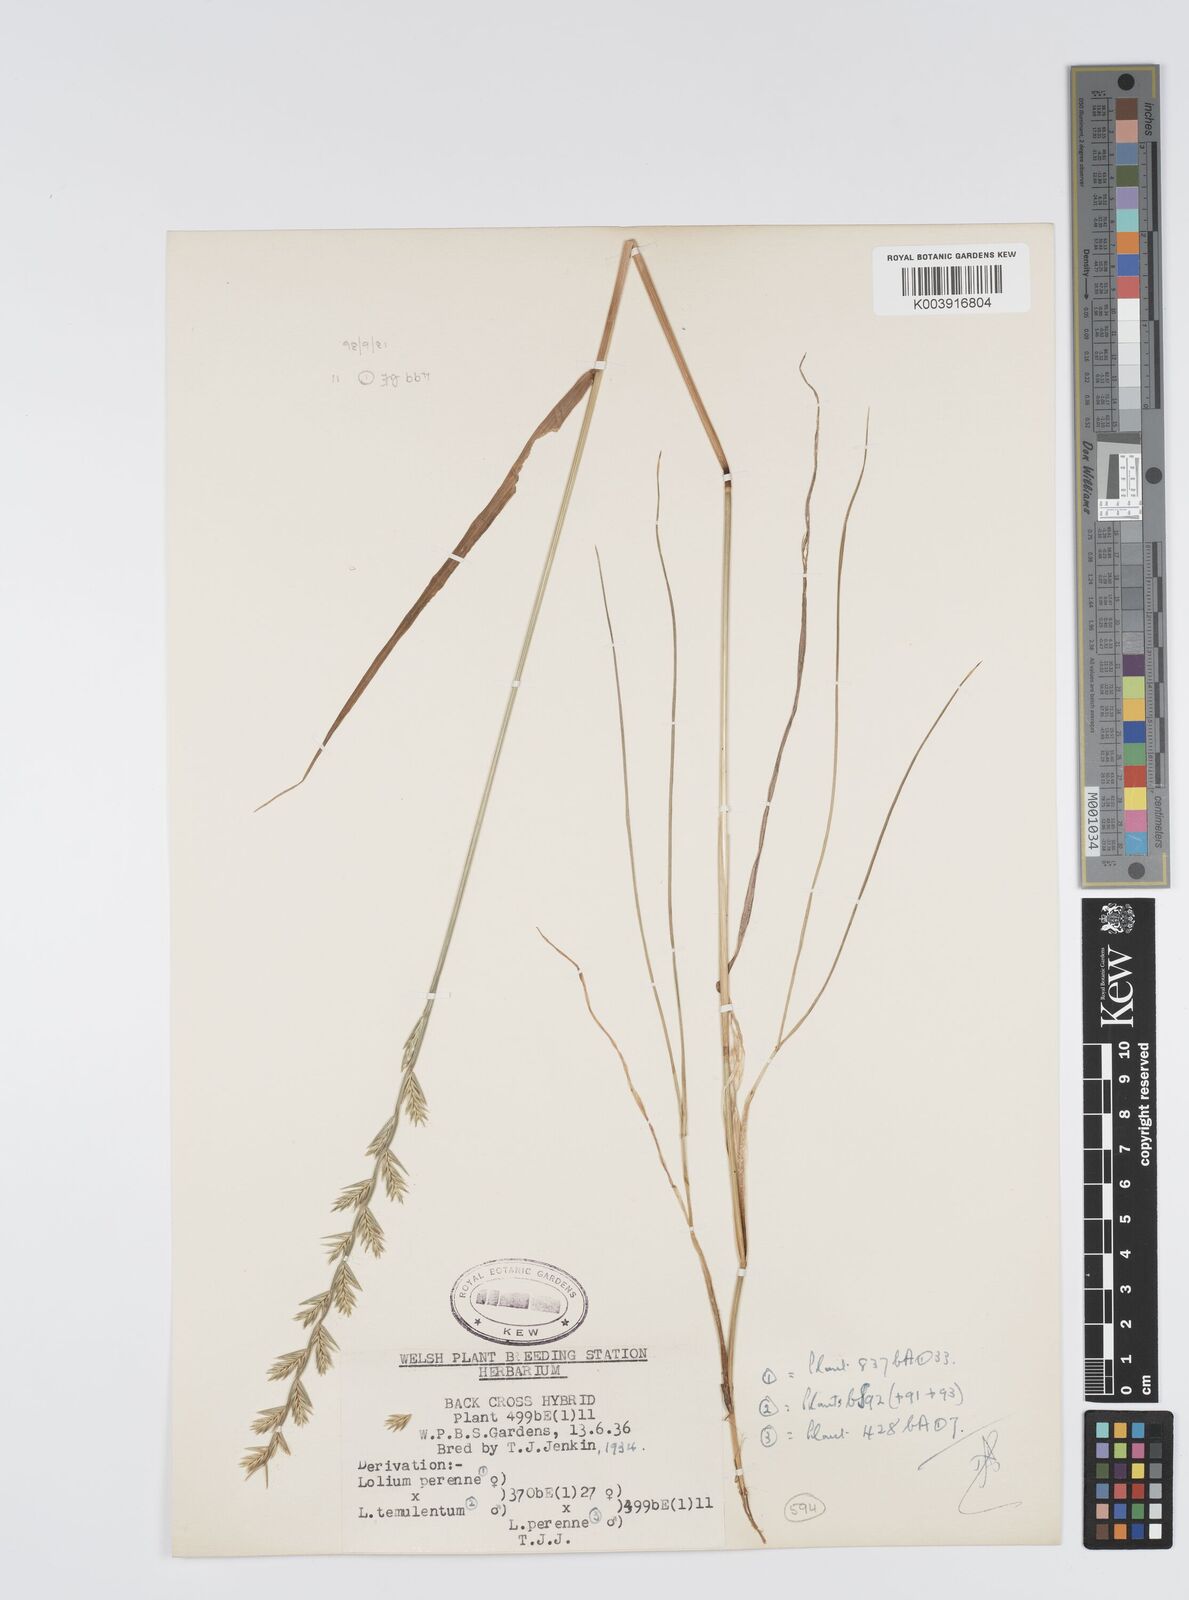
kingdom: Plantae
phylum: Tracheophyta
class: Liliopsida
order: Poales
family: Poaceae
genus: Lolium
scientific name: Lolium perenne
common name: Perennial ryegrass
